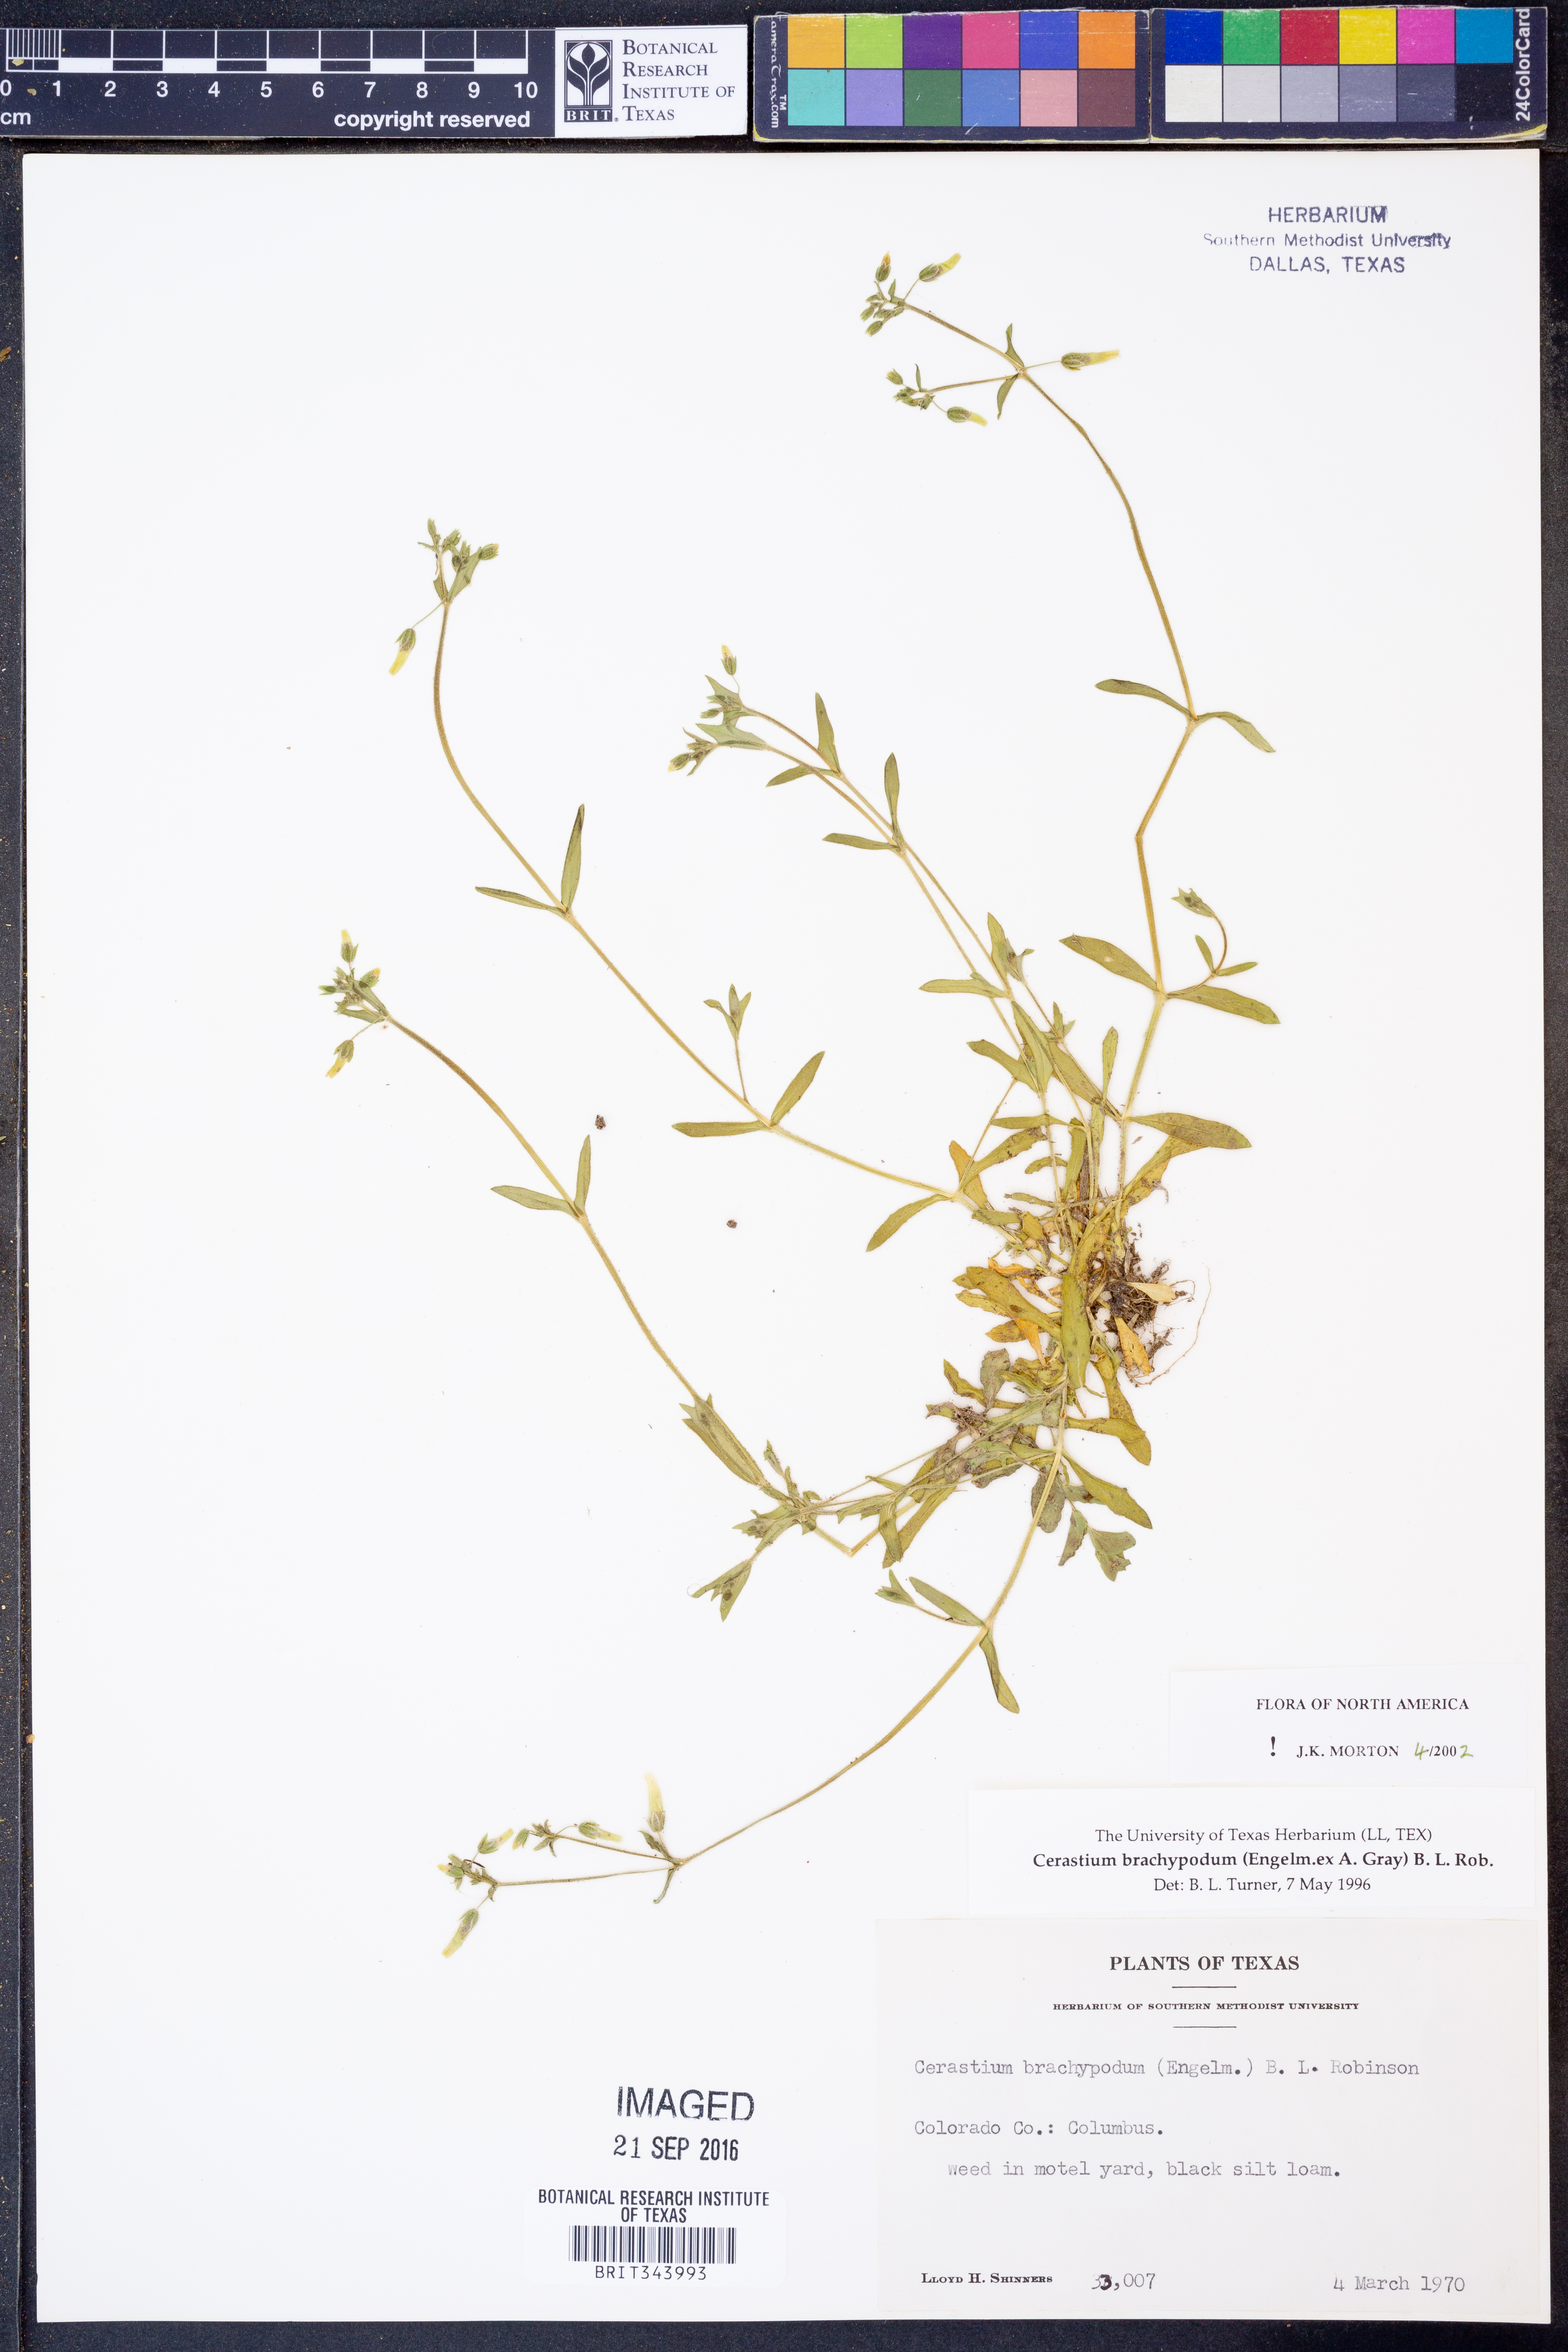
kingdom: Plantae
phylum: Tracheophyta
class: Magnoliopsida
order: Caryophyllales
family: Caryophyllaceae
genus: Cerastium
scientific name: Cerastium brachypodum
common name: Short-pedicelled nodding chickweed
